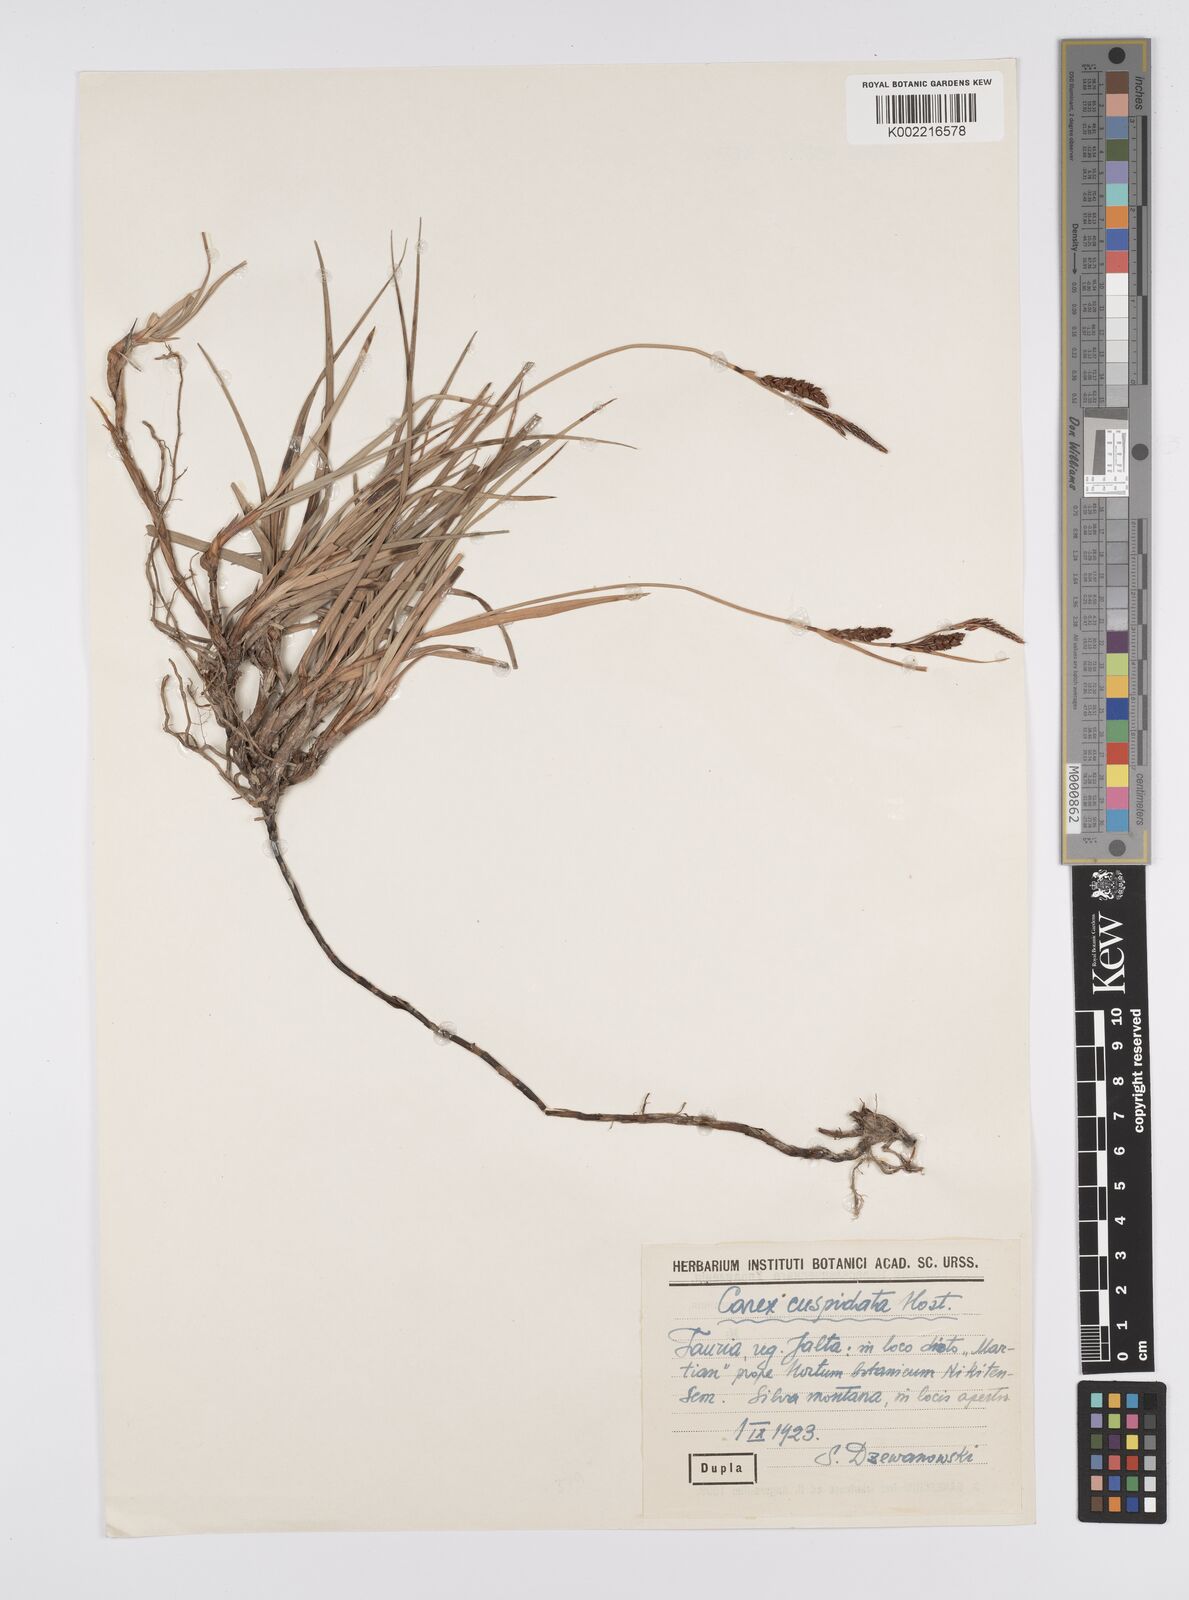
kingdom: Plantae
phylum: Tracheophyta
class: Liliopsida
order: Poales
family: Cyperaceae
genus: Carex
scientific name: Carex flacca
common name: Glaucous sedge
